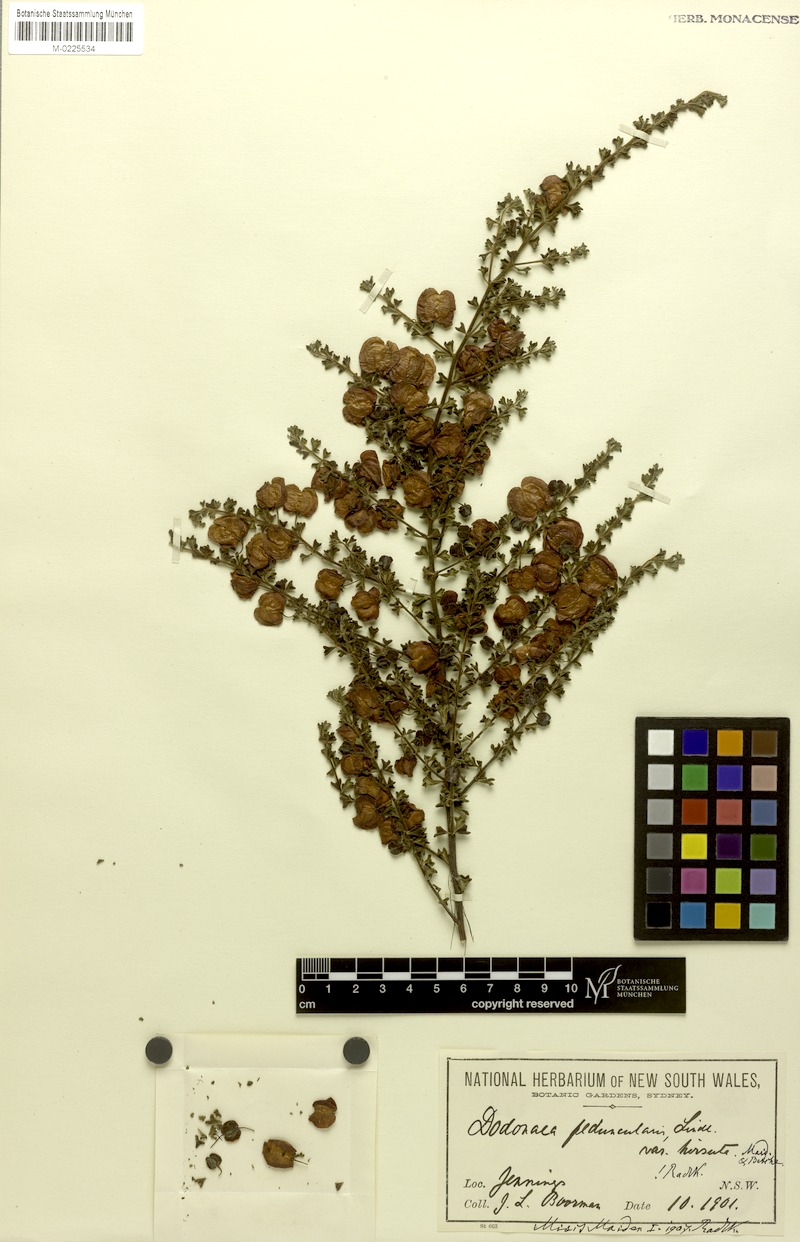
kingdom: Plantae
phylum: Tracheophyta
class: Magnoliopsida
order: Sapindales
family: Sapindaceae
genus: Dodonaea
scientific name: Dodonaea peduncularis
